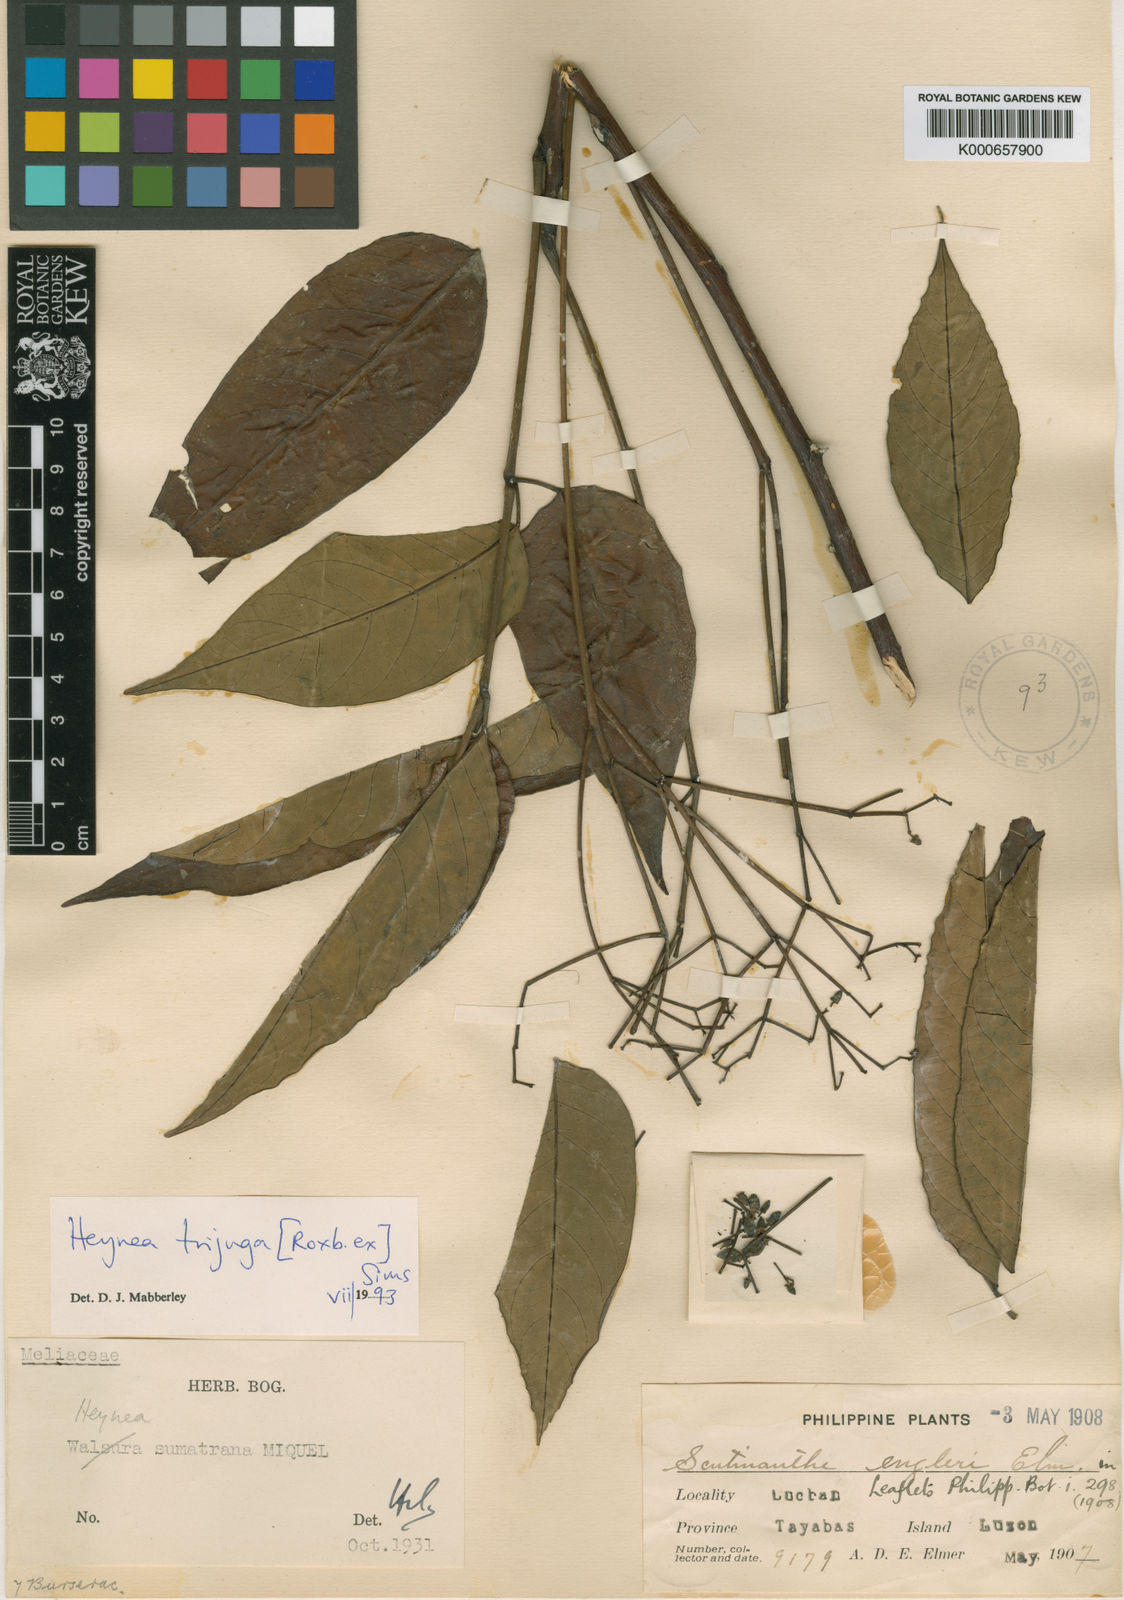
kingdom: Plantae
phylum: Tracheophyta
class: Magnoliopsida
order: Sapindales
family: Meliaceae
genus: Heynea
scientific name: Heynea trijuga
